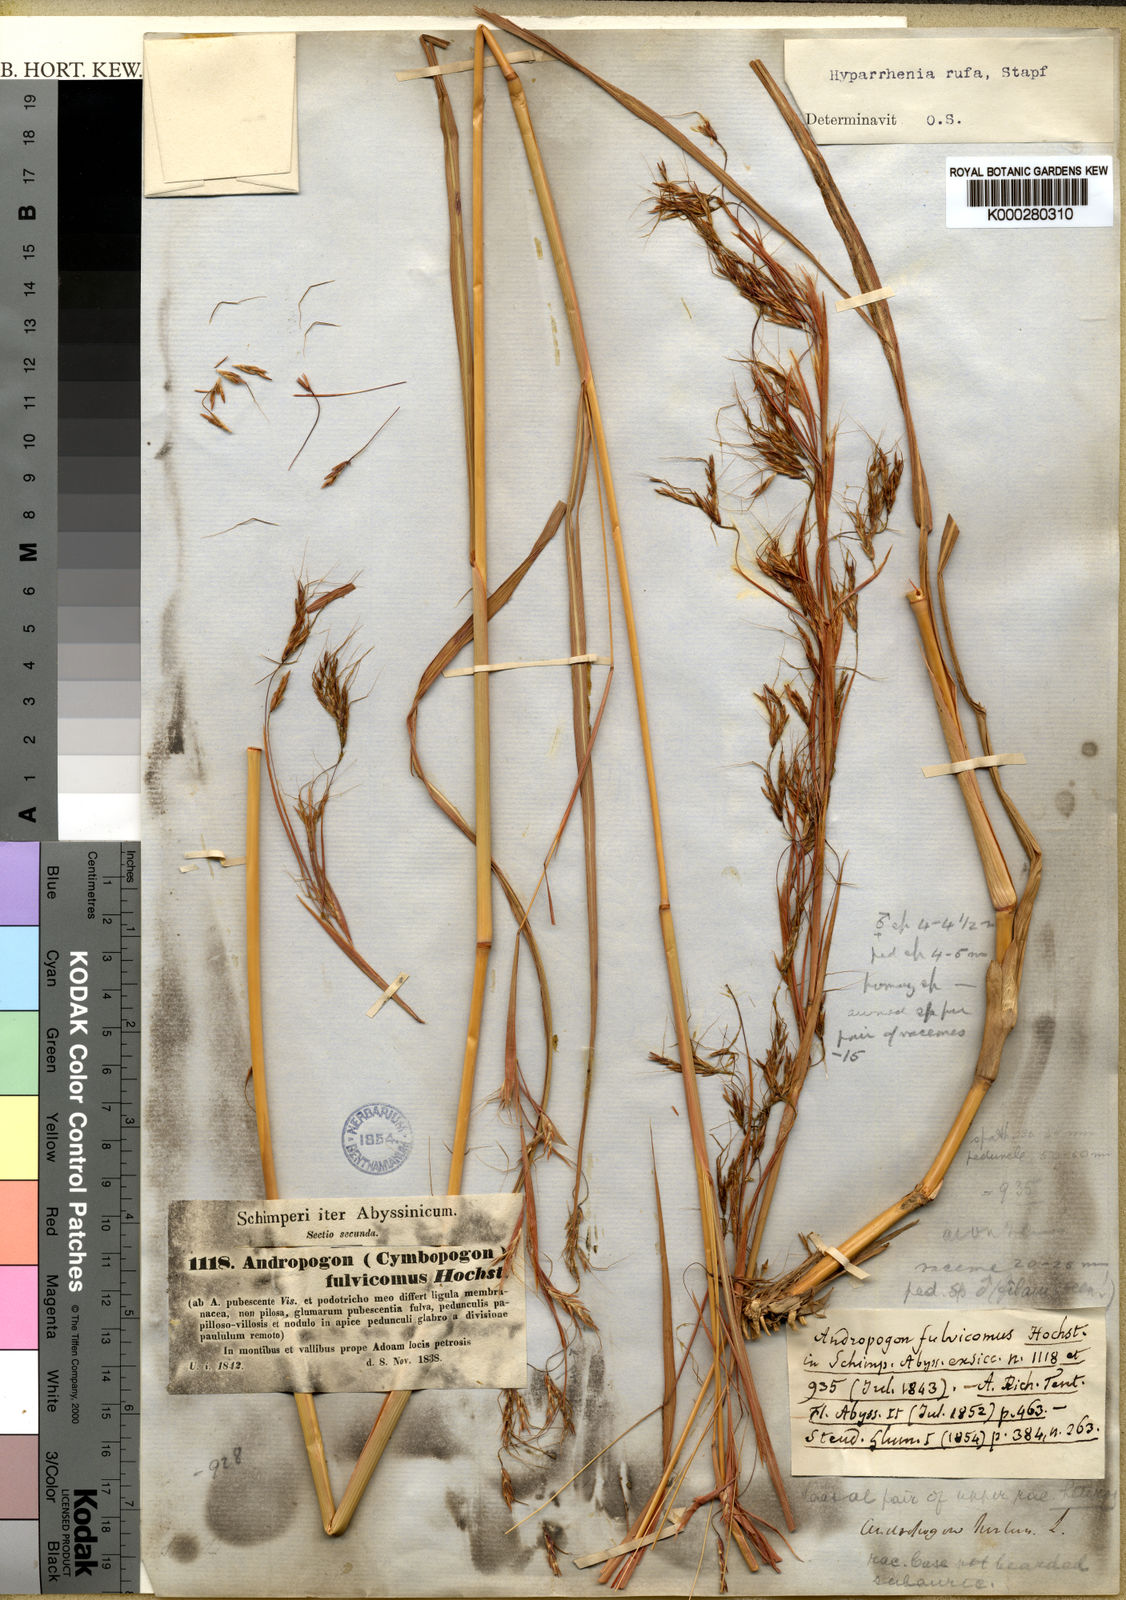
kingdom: Plantae
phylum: Tracheophyta
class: Liliopsida
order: Poales
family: Poaceae
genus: Hyparrhenia
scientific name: Hyparrhenia rufa
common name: Jaraguagrass
